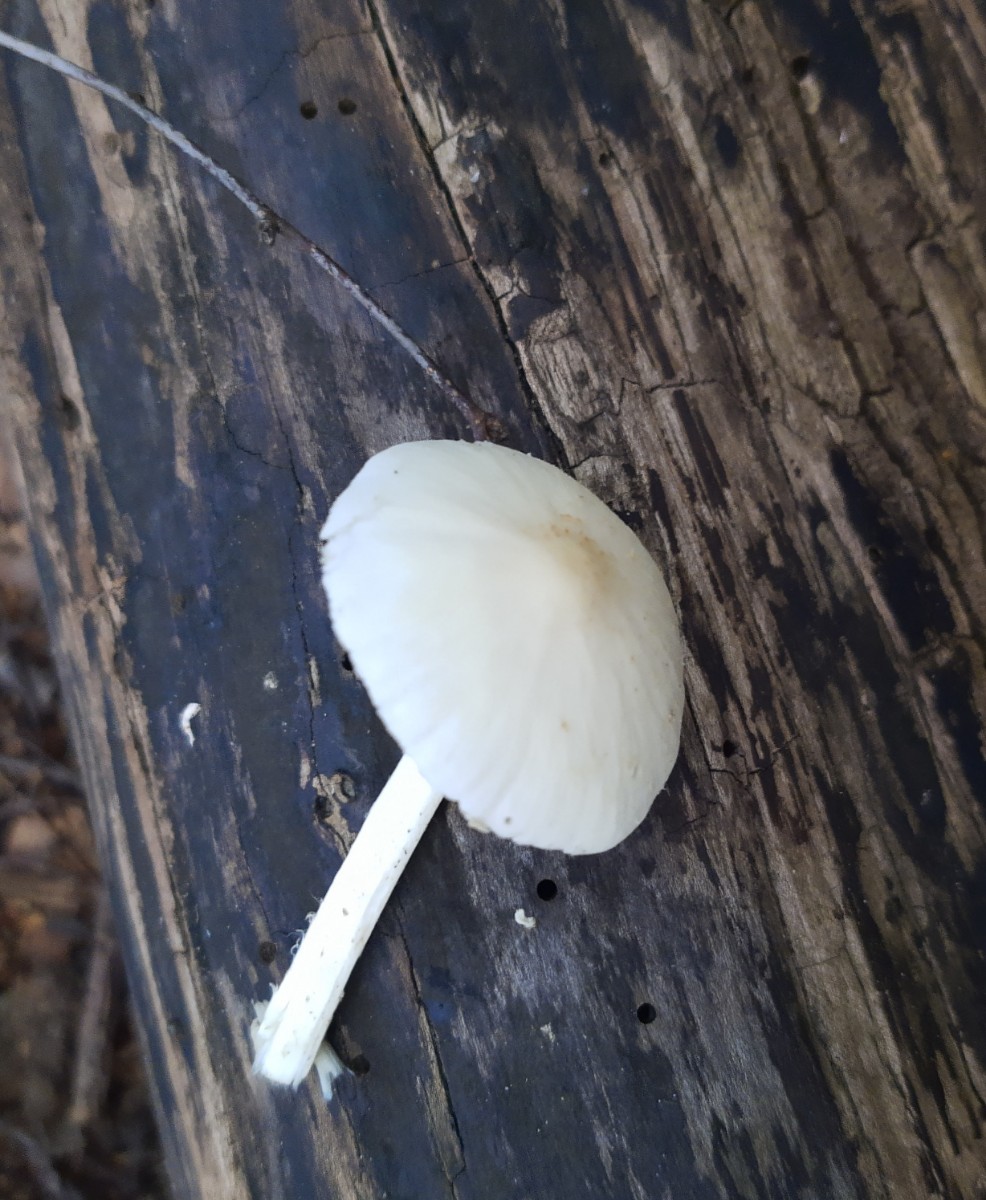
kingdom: Fungi
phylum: Basidiomycota
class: Agaricomycetes
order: Agaricales
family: Psathyrellaceae
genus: Candolleomyces
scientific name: Candolleomyces candolleanus
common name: Candolles mørkhat
